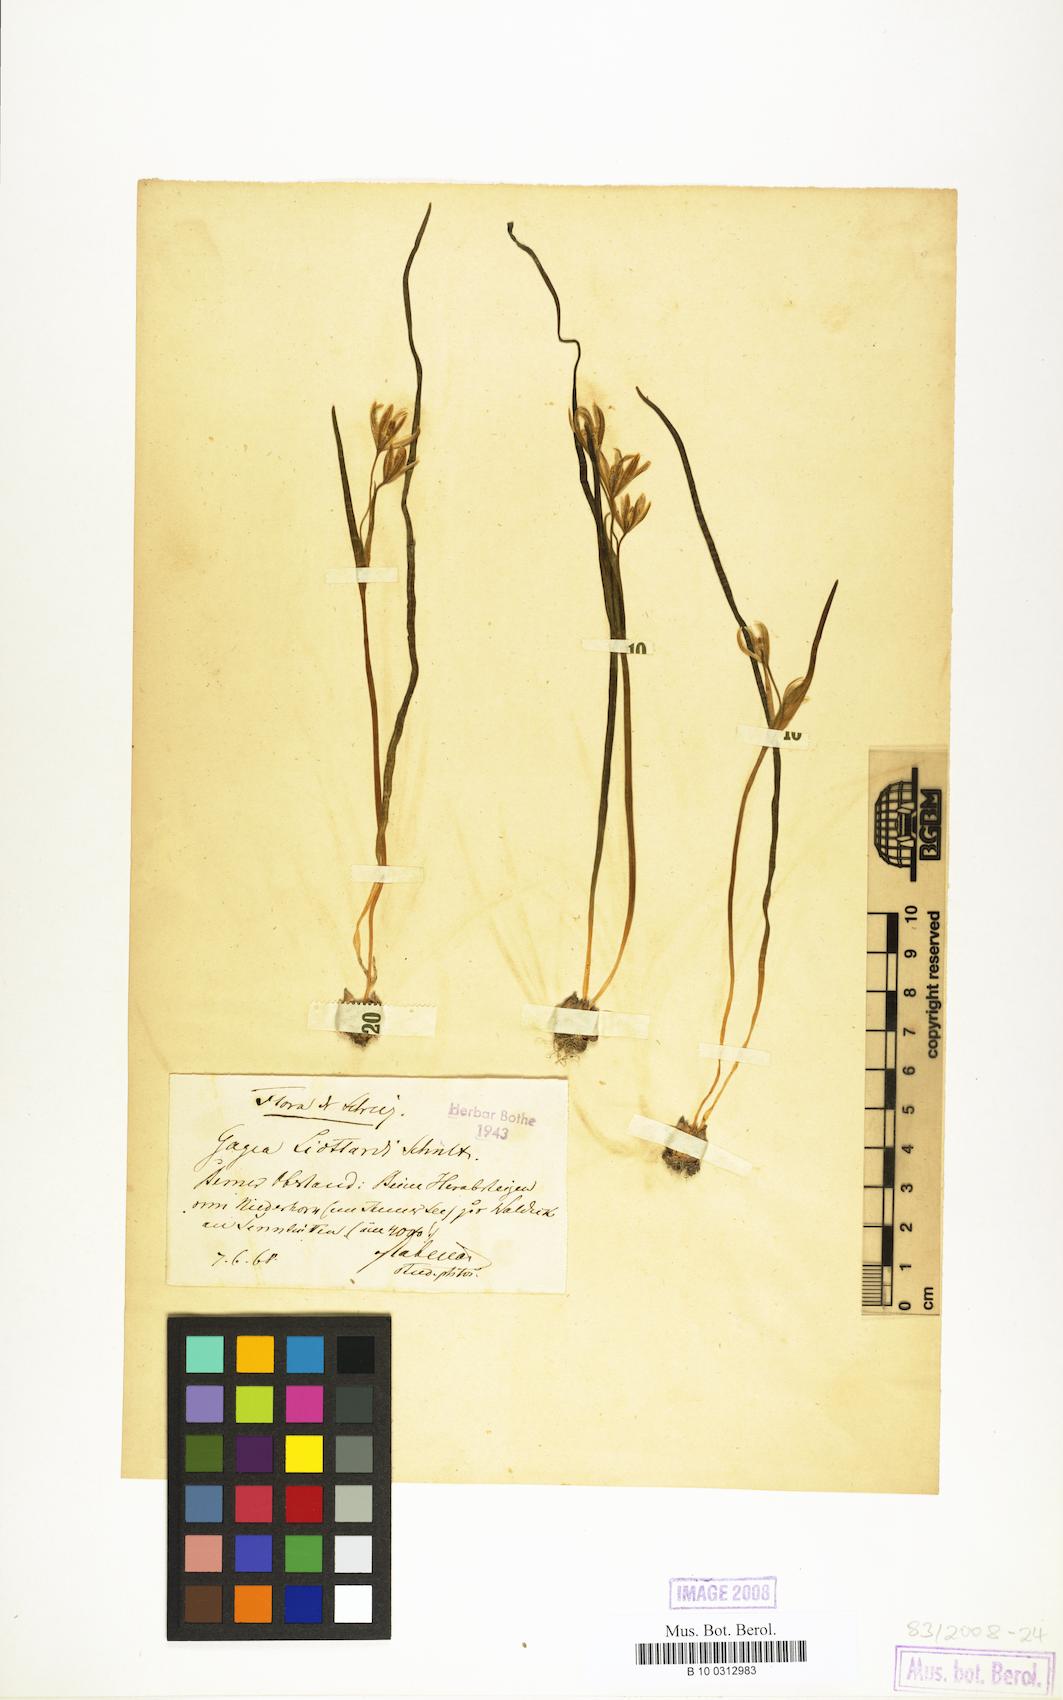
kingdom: Plantae
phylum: Tracheophyta
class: Liliopsida
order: Liliales
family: Liliaceae
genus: Gagea
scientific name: Gagea
